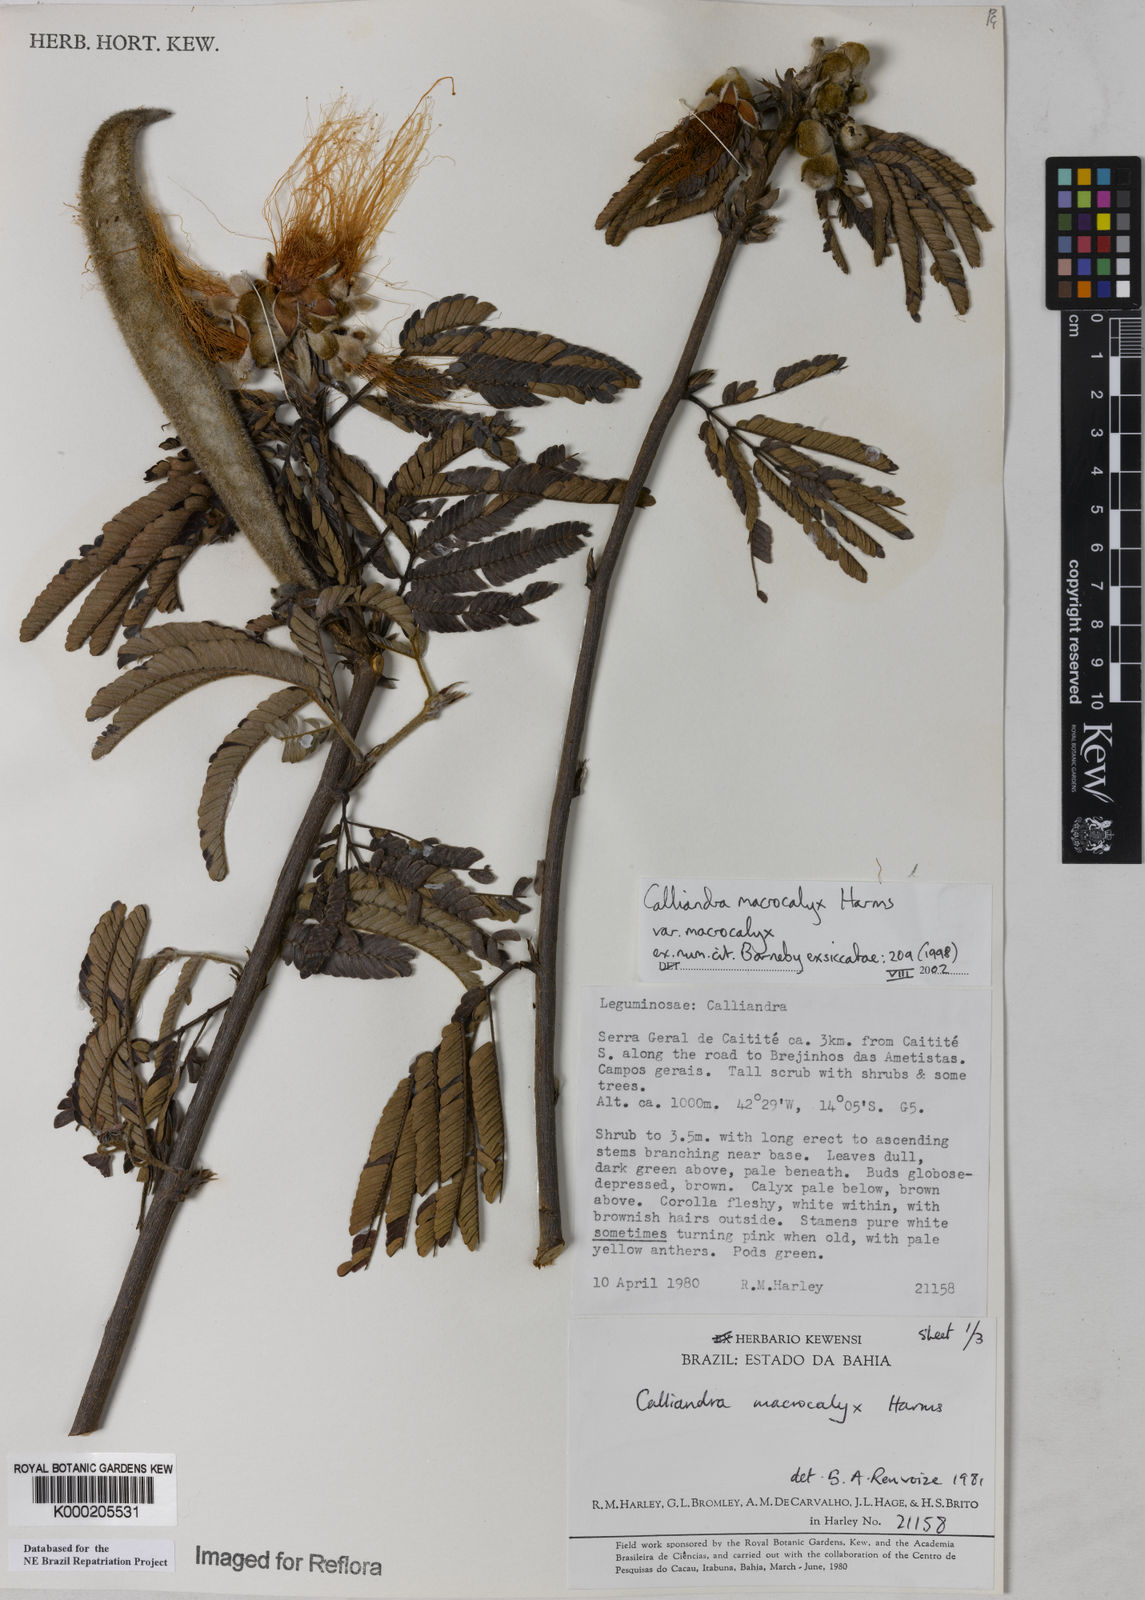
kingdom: Plantae
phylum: Tracheophyta
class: Magnoliopsida
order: Fabales
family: Fabaceae
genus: Calliandra
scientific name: Calliandra macrocalyx
